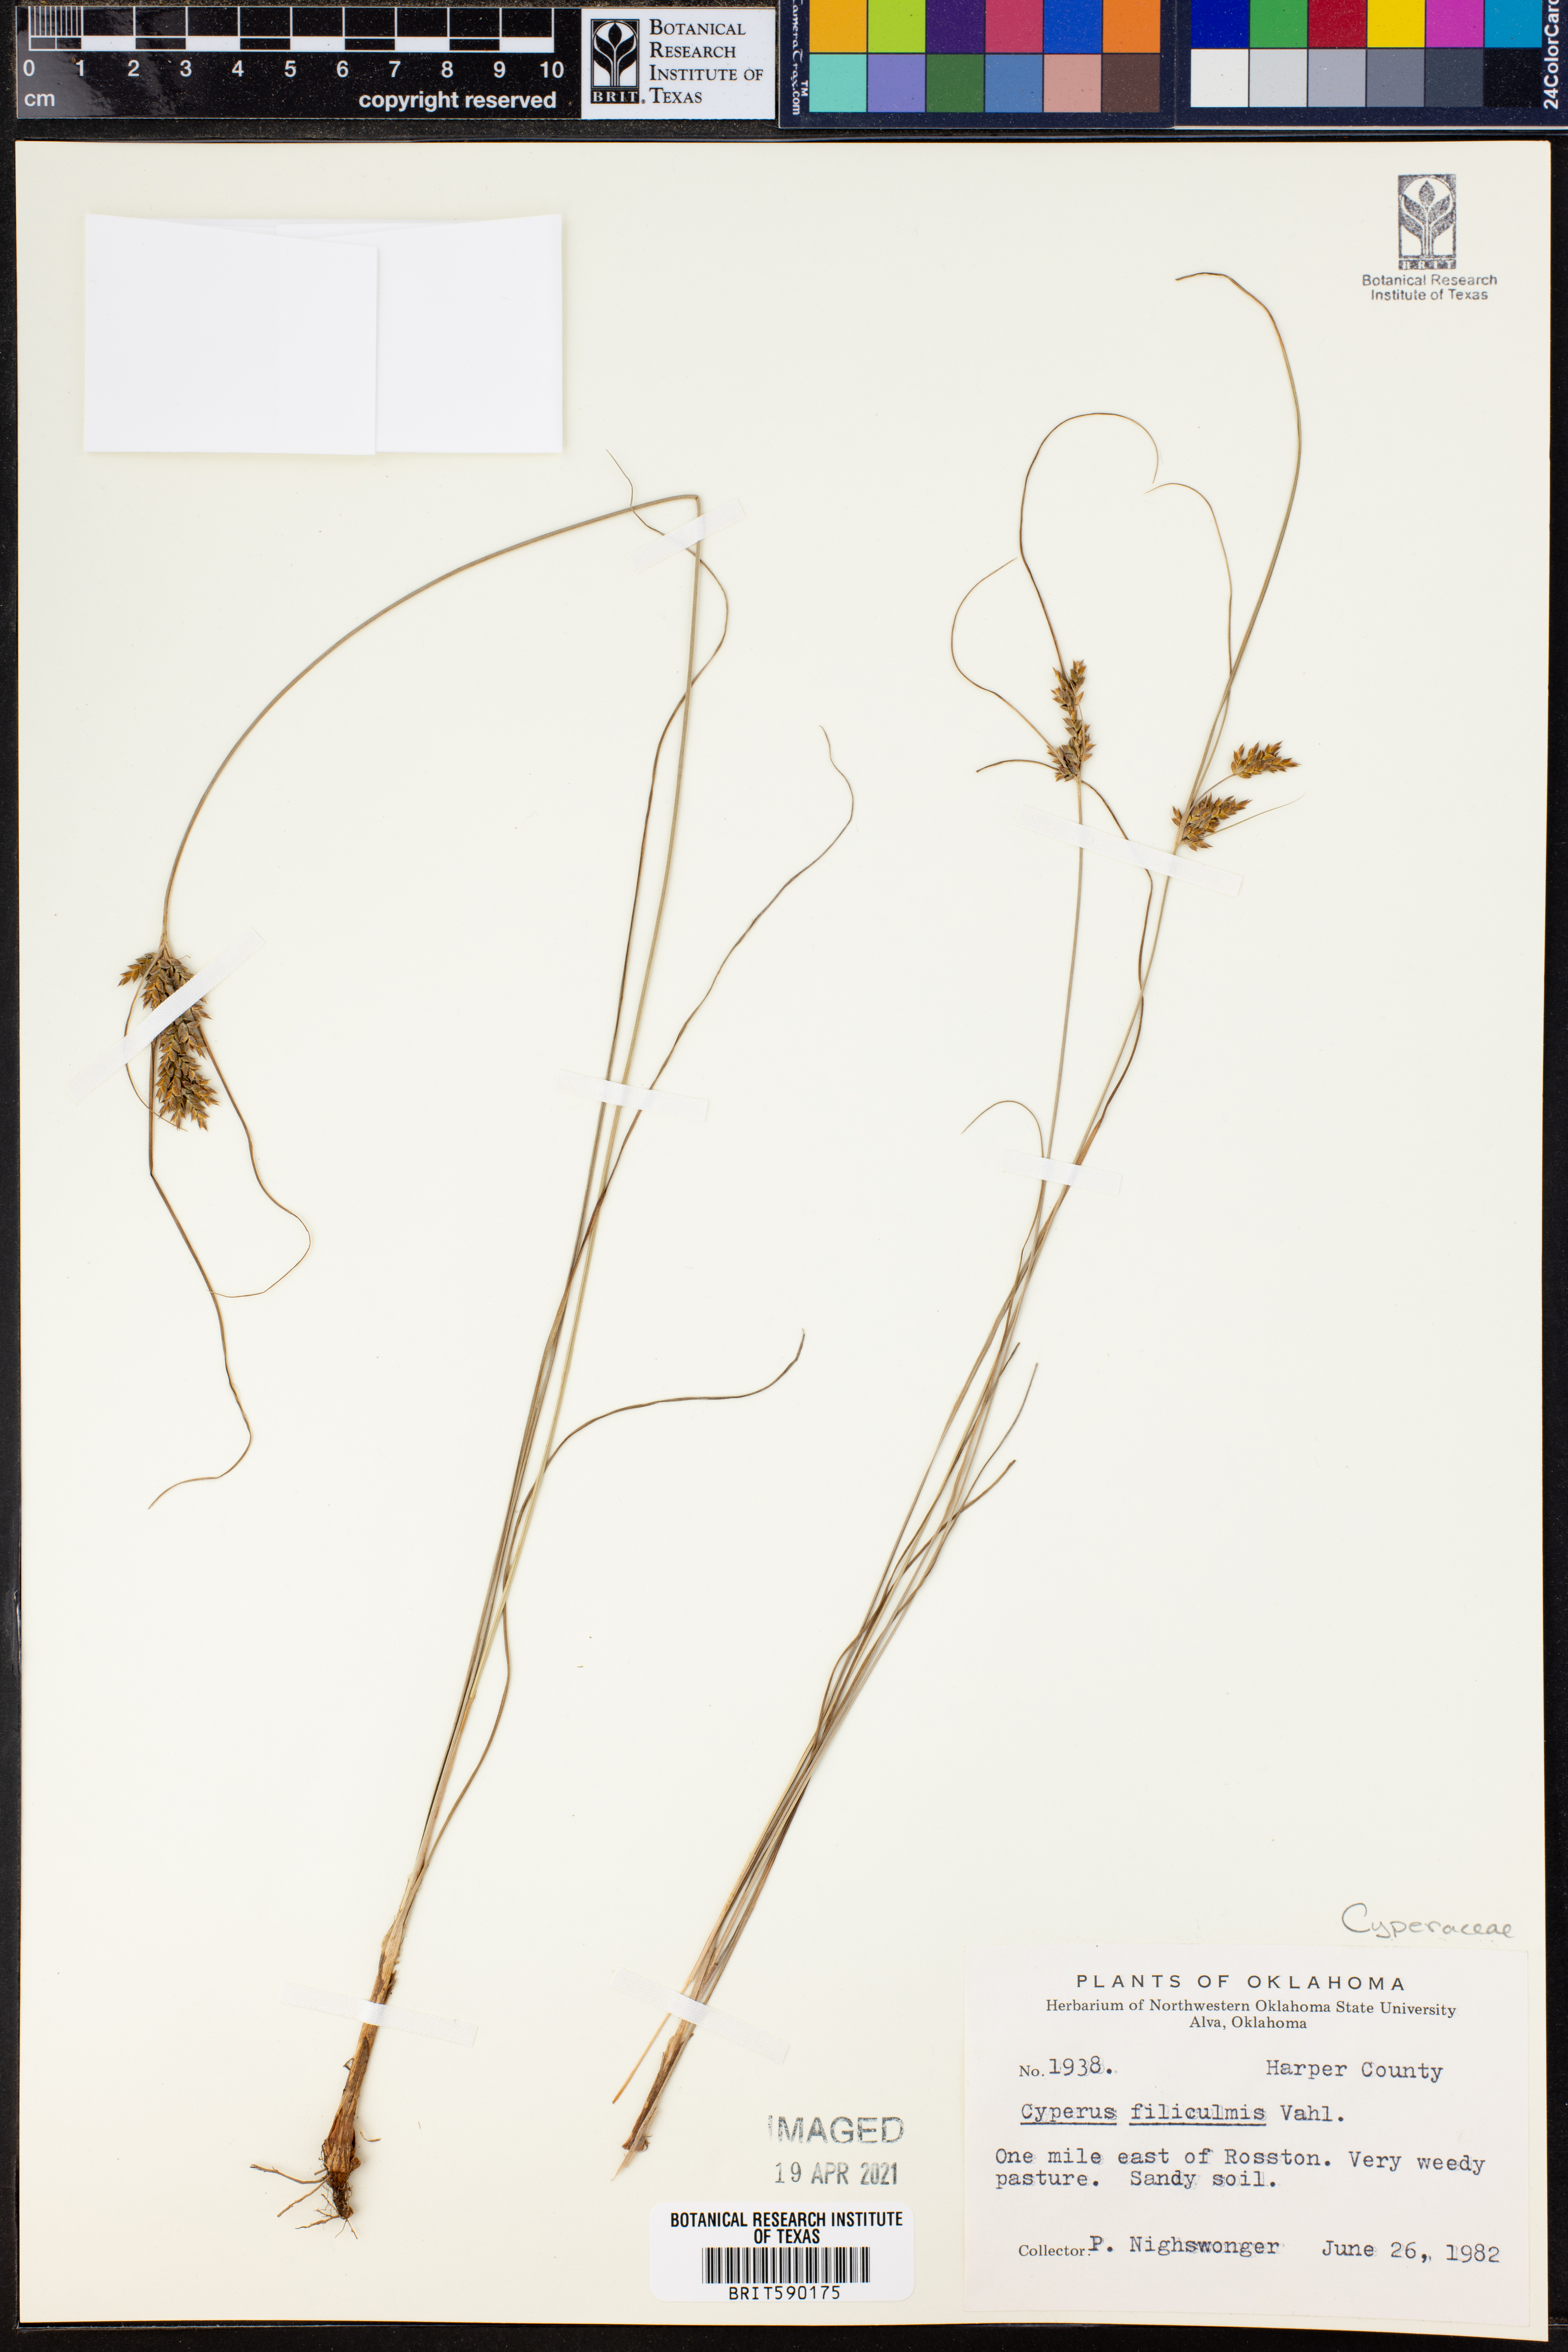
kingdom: Plantae
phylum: Tracheophyta
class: Liliopsida
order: Poales
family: Cyperaceae
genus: Cyperus
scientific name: Cyperus filicinus
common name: Fern flatsedge
